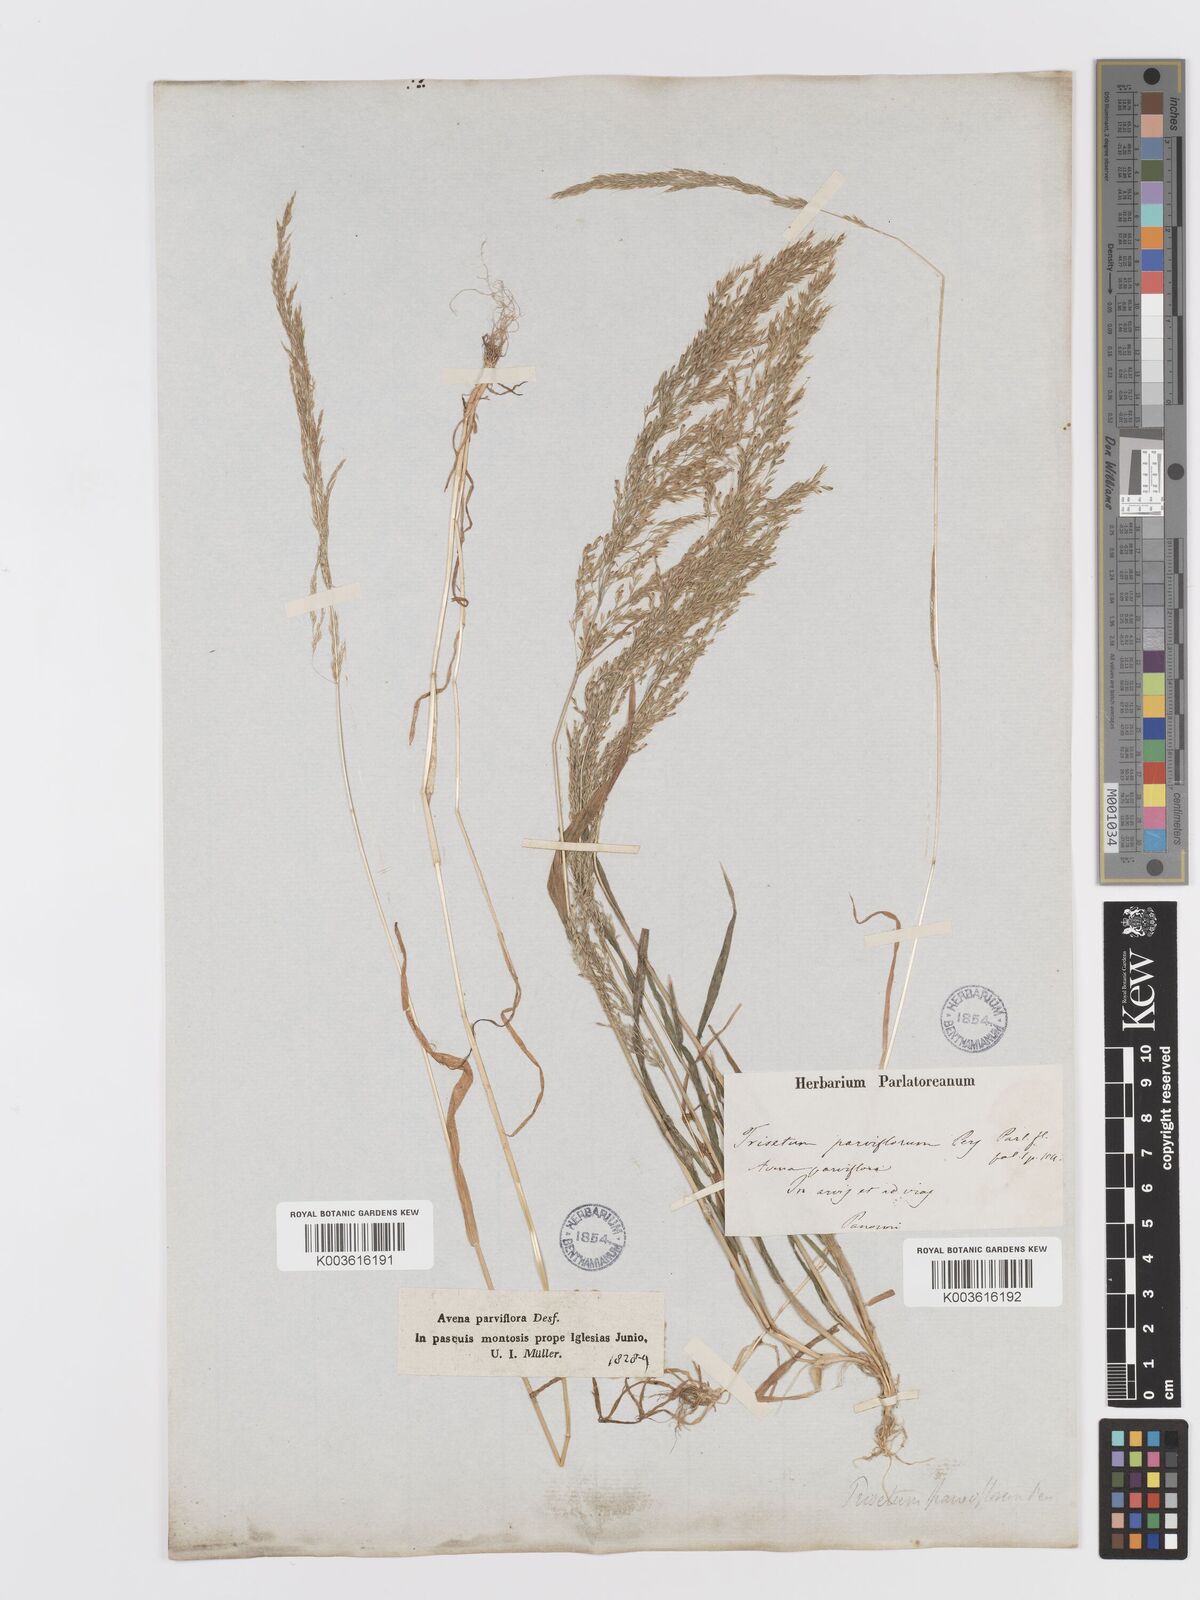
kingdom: Plantae
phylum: Tracheophyta
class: Liliopsida
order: Poales
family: Poaceae
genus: Trisetaria
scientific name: Trisetaria parviflora
